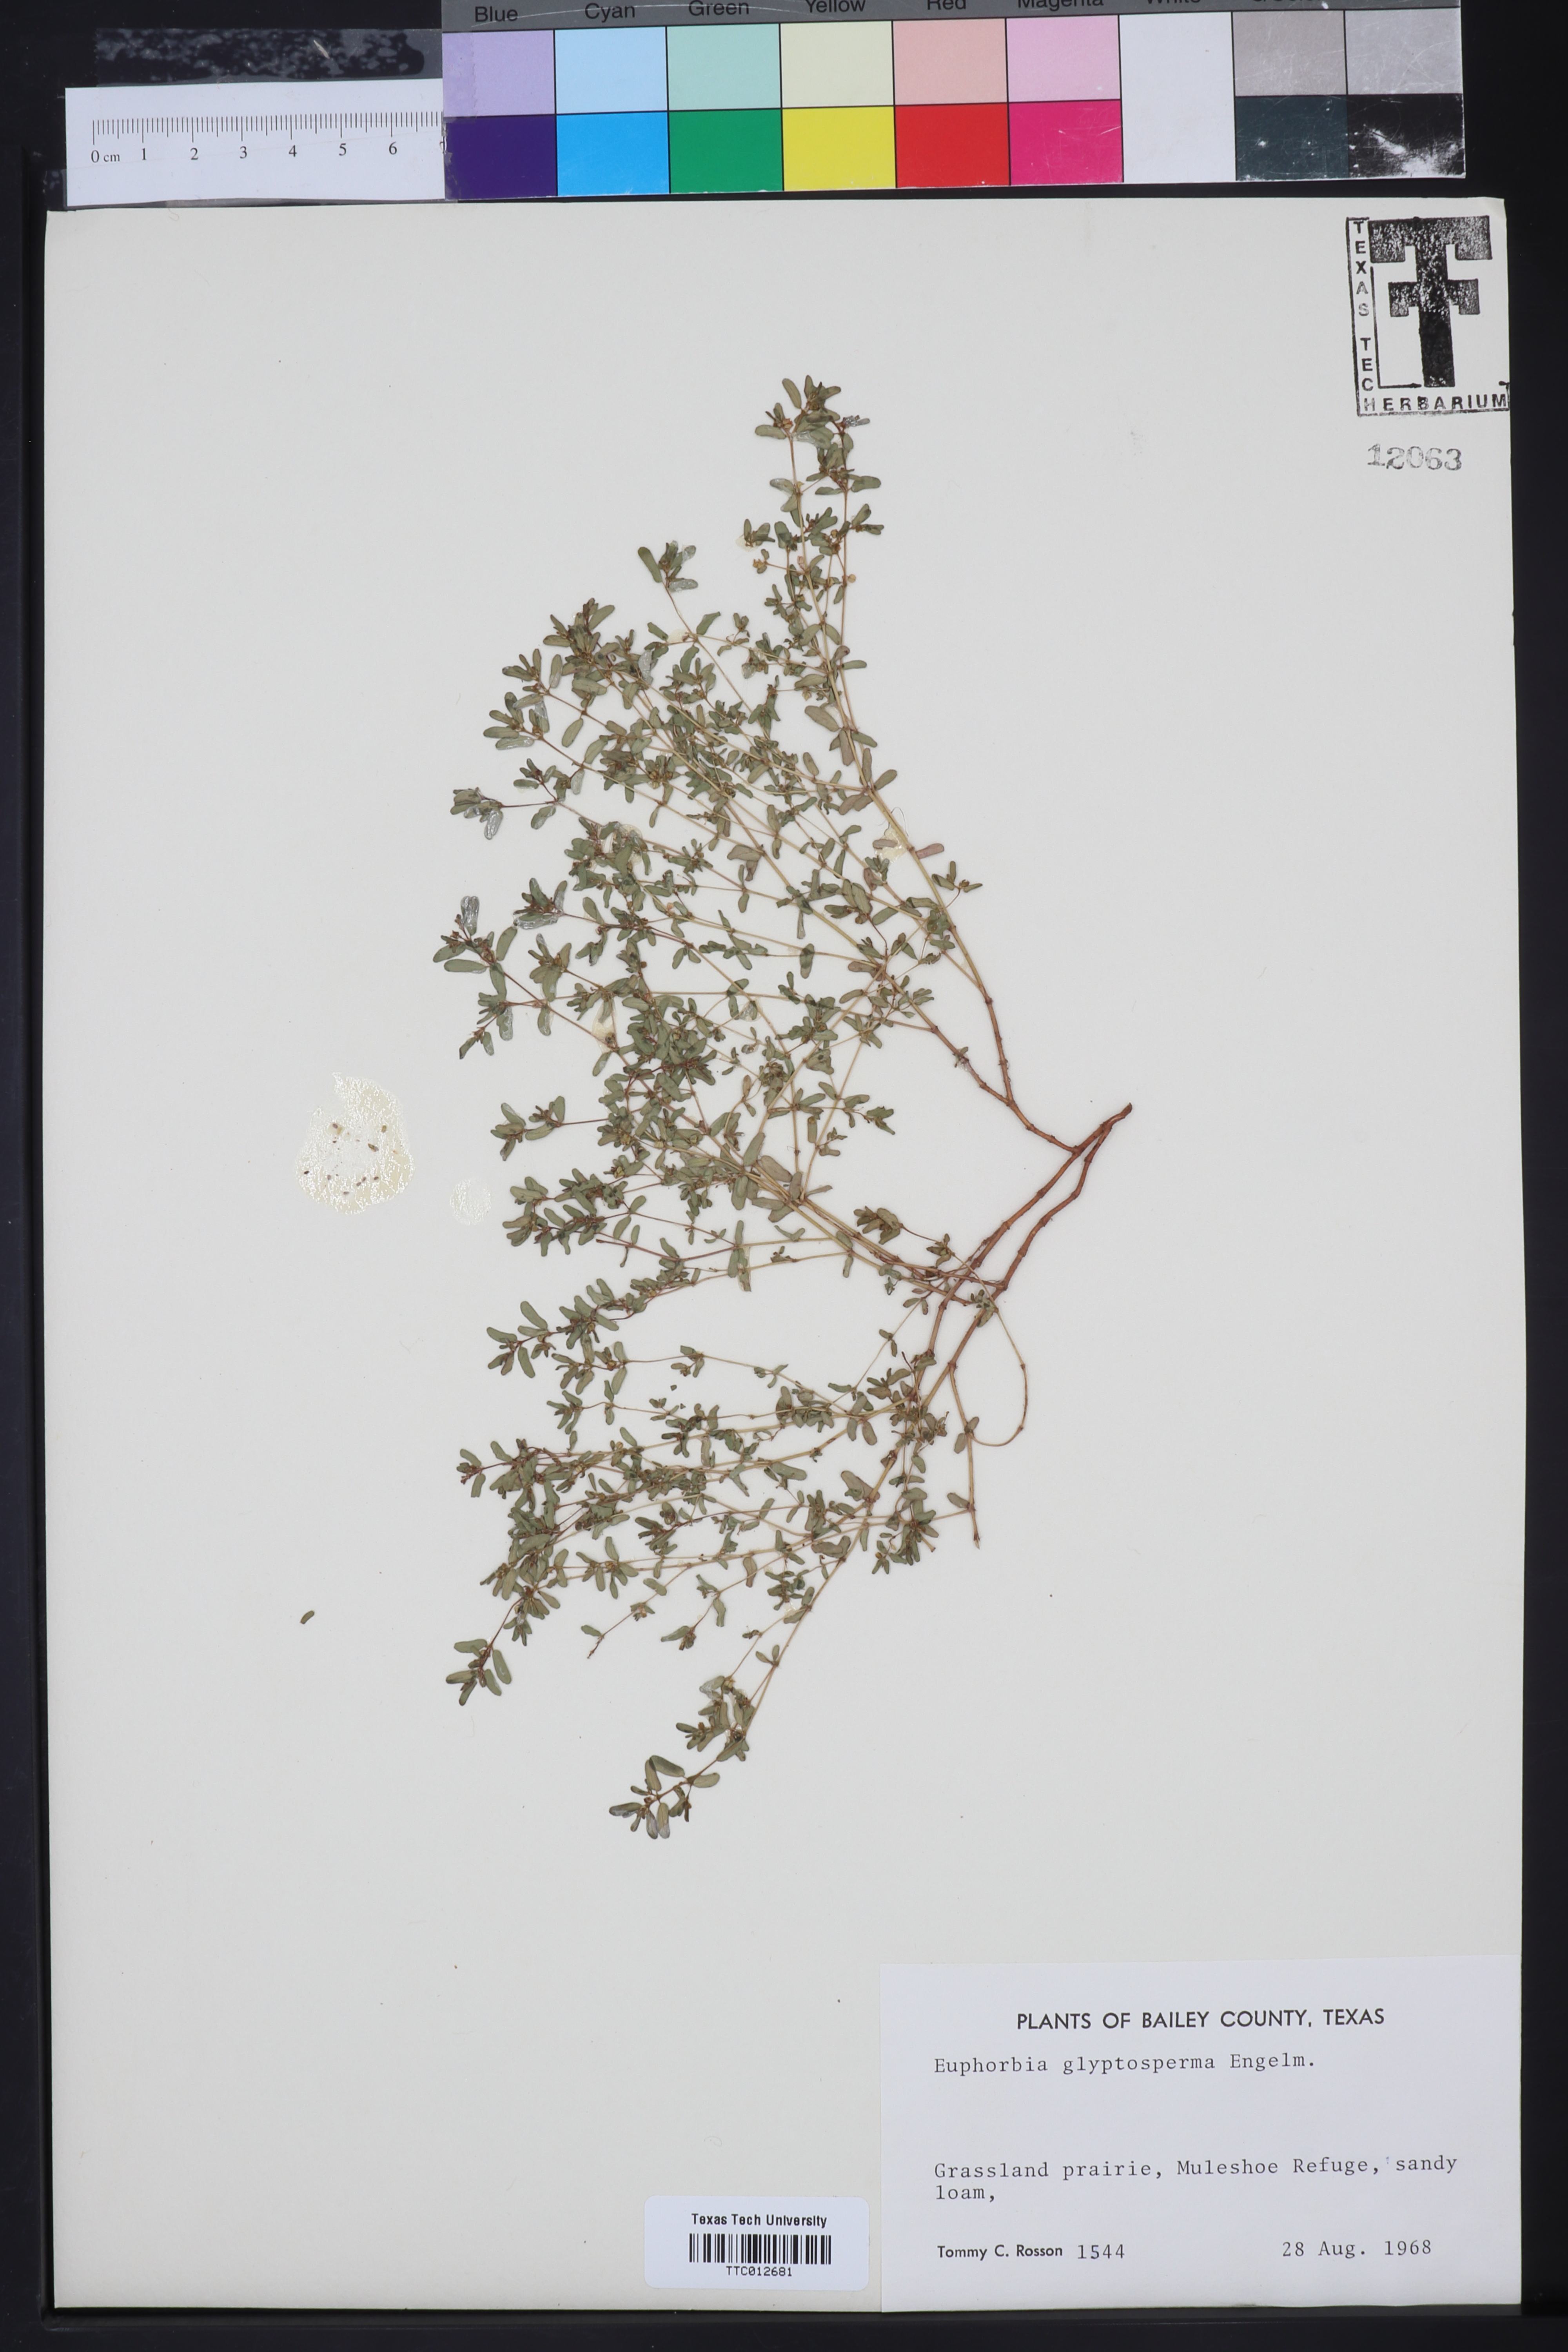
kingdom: Plantae
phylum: Tracheophyta
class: Magnoliopsida
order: Malpighiales
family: Euphorbiaceae
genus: Euphorbia
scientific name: Euphorbia glyptosperma
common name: Corrugate-seeded spurge
